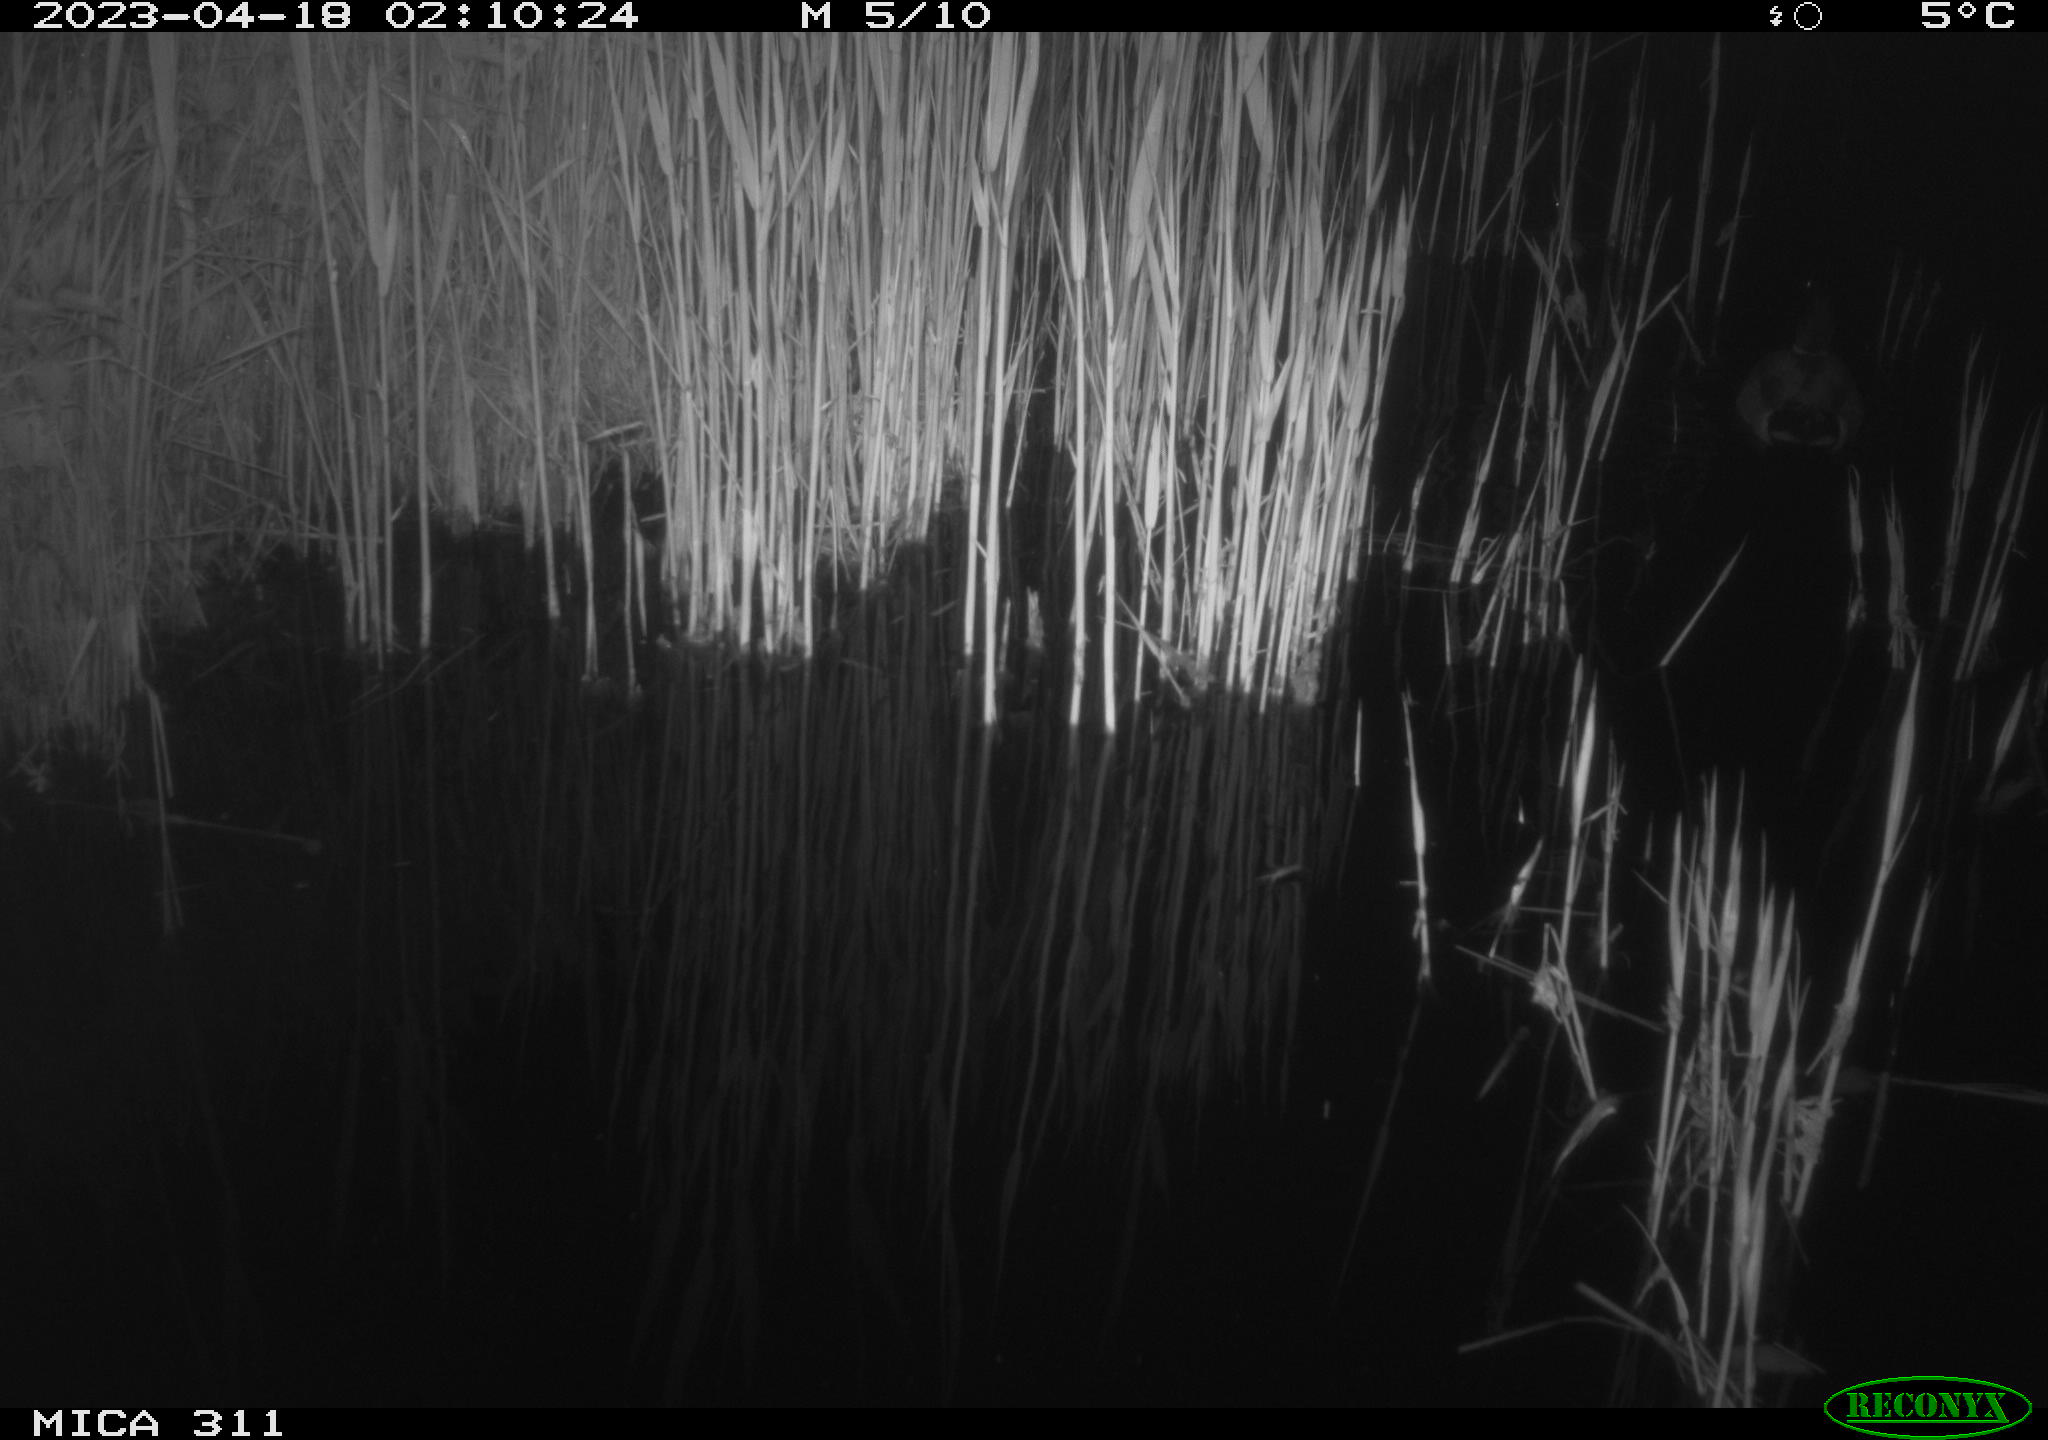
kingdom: Animalia
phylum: Chordata
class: Aves
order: Anseriformes
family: Anatidae
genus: Anas
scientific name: Anas
